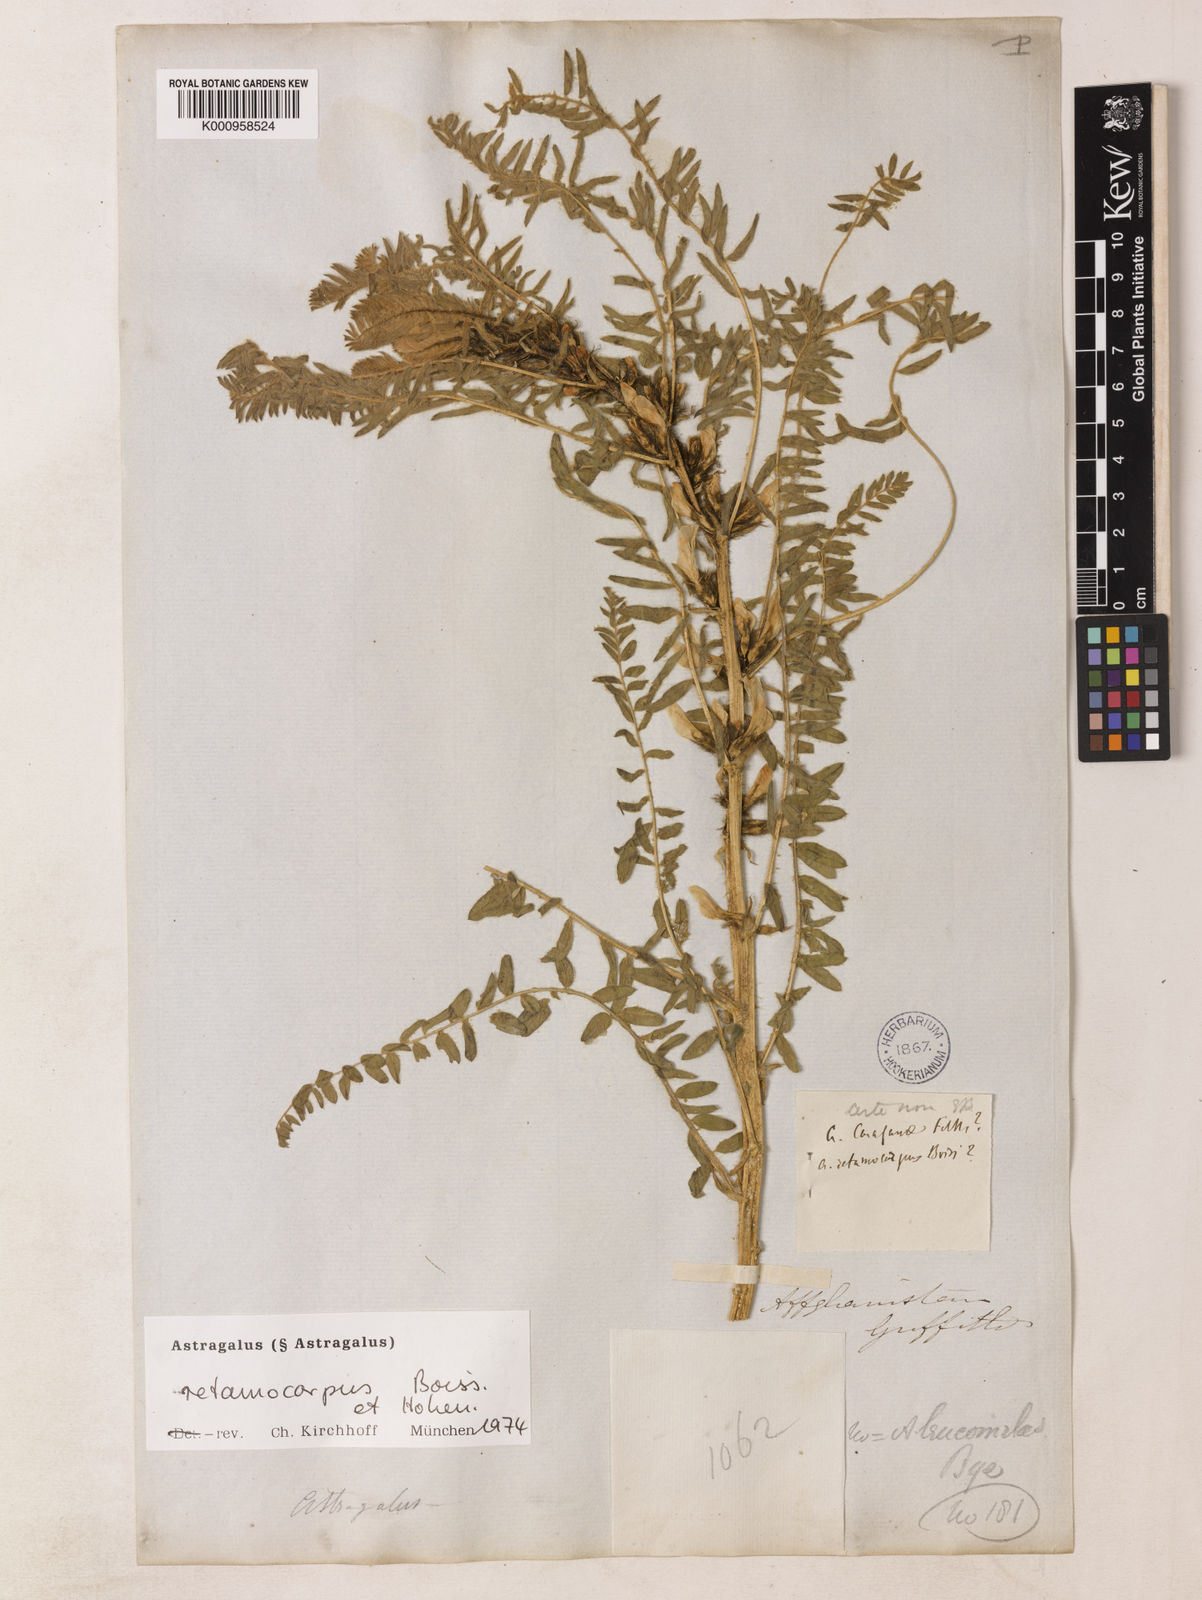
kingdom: Plantae
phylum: Tracheophyta
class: Magnoliopsida
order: Fabales
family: Fabaceae
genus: Astragalus
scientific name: Astragalus
